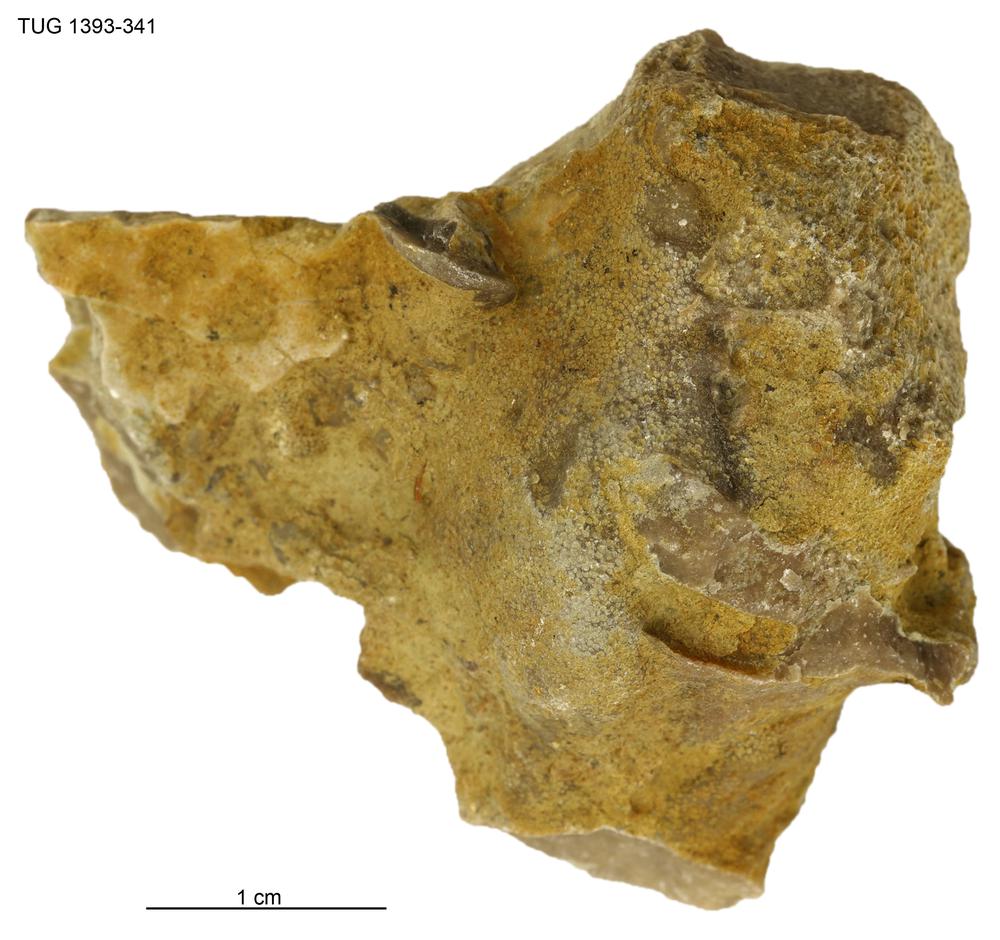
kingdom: Animalia
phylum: Bryozoa
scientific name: Bryozoa
